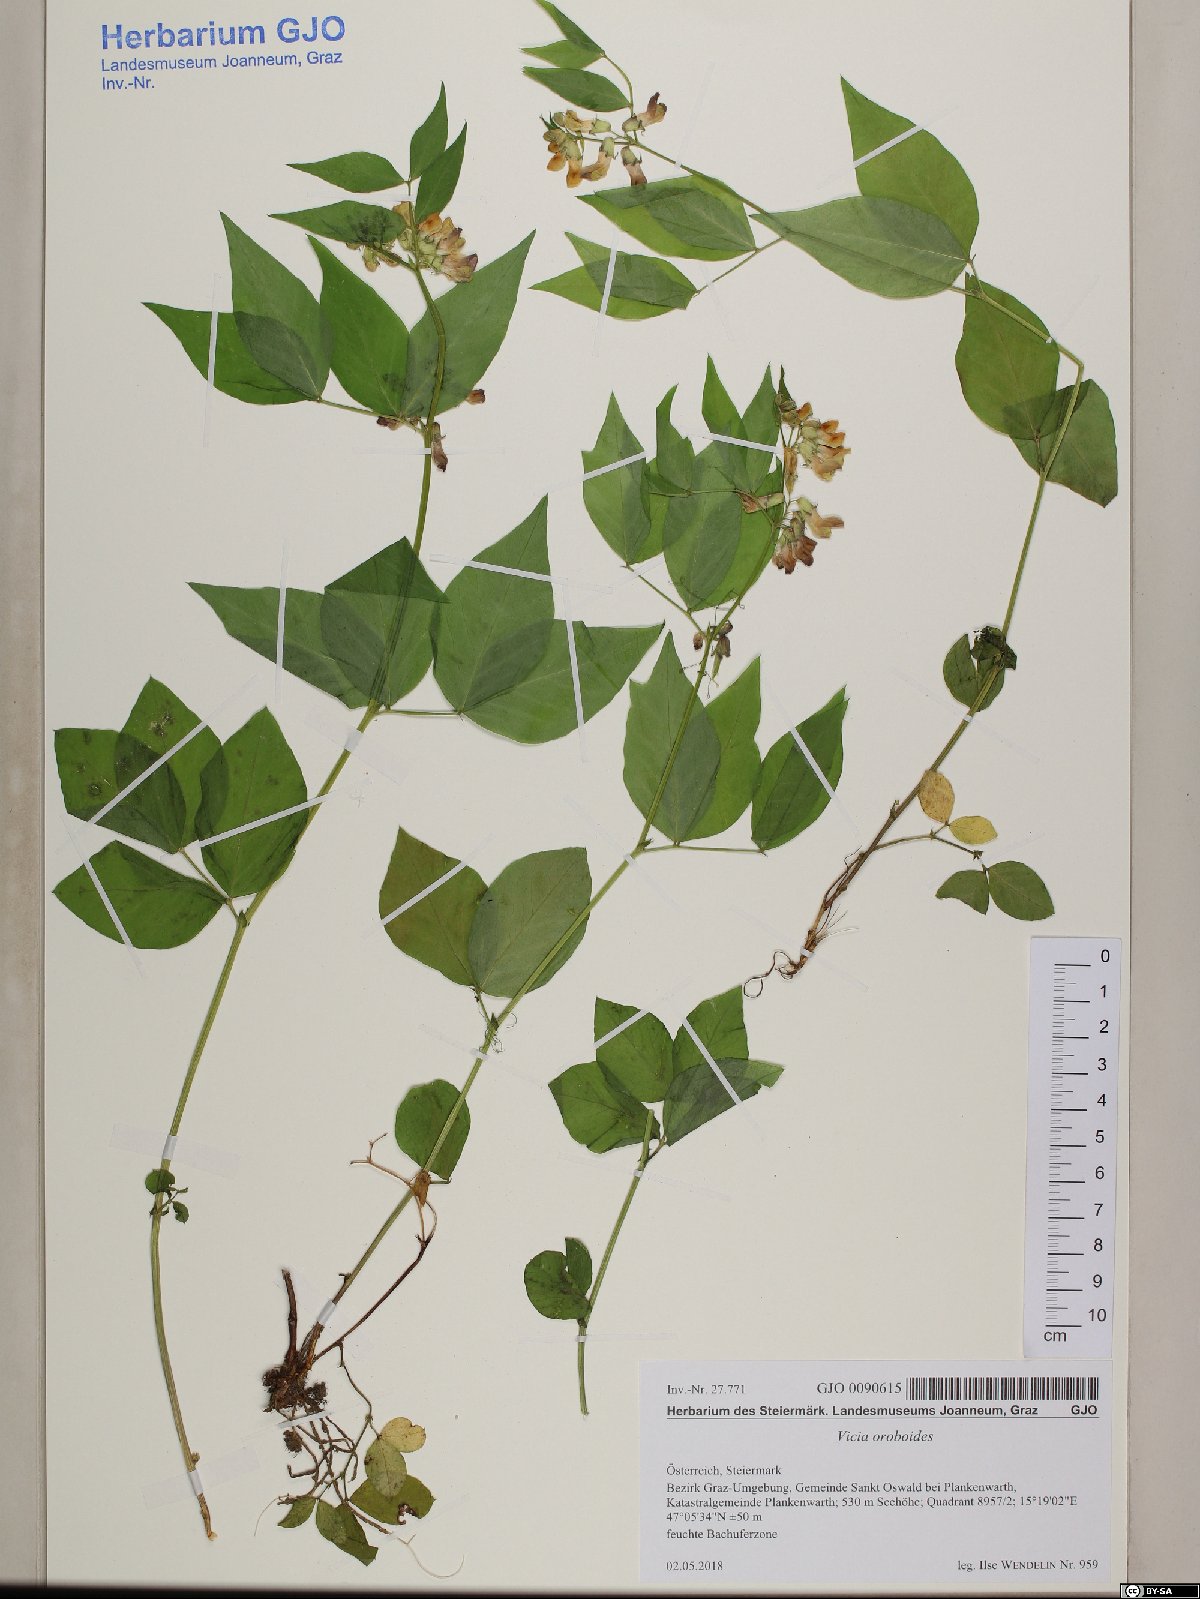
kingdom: Plantae
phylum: Tracheophyta
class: Magnoliopsida
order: Fabales
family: Fabaceae
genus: Vicia
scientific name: Vicia oroboides
